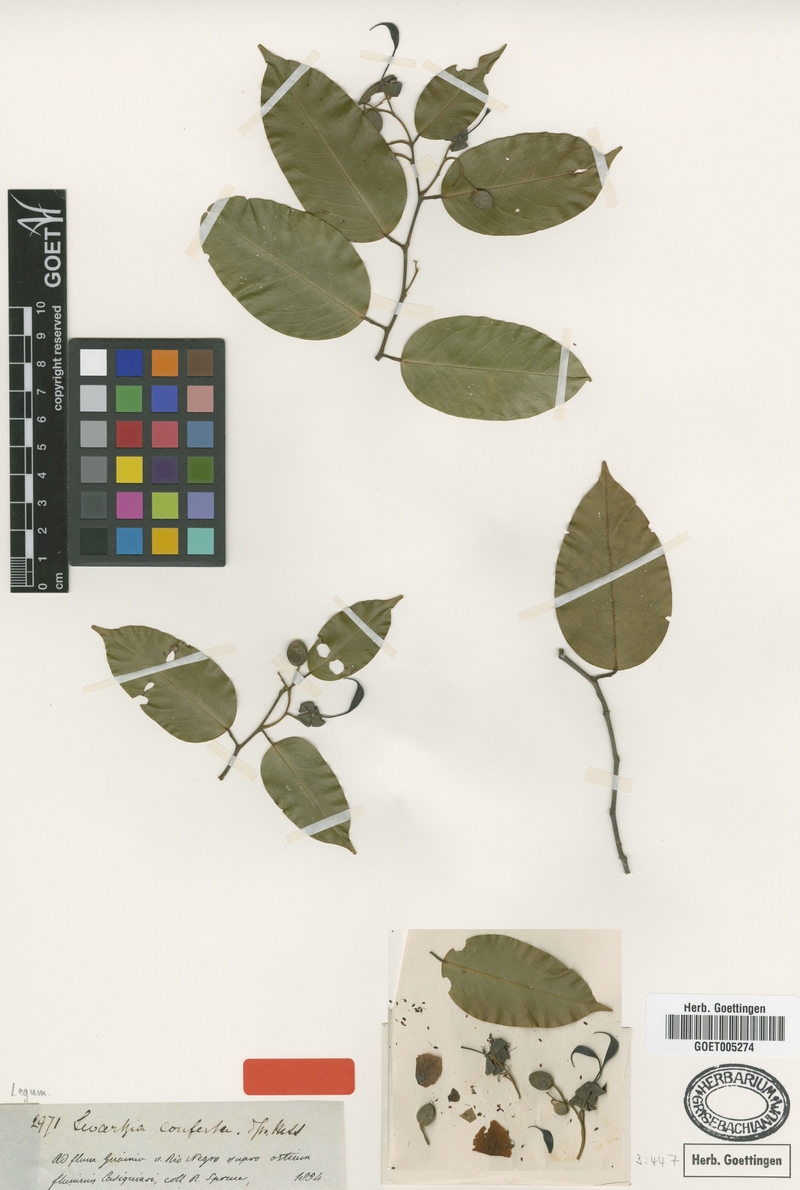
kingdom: Plantae
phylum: Tracheophyta
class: Magnoliopsida
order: Fabales
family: Fabaceae
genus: Swartzia
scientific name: Swartzia conferta
